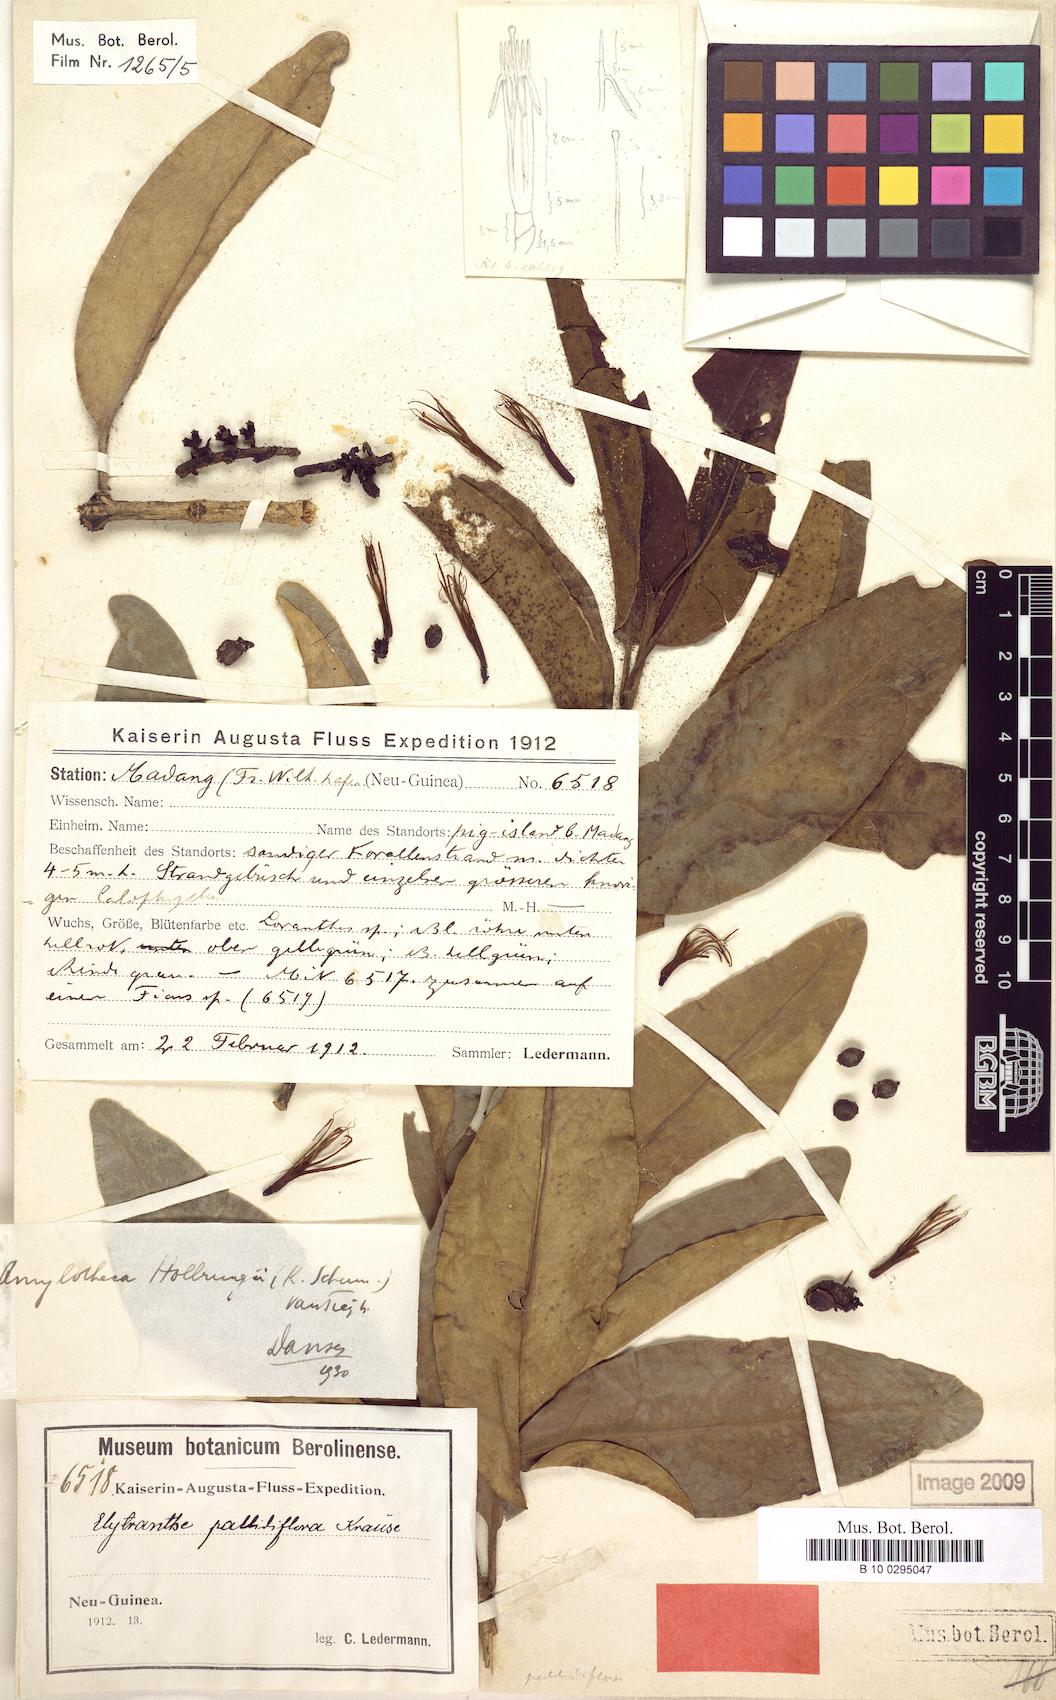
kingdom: Plantae
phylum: Tracheophyta
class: Magnoliopsida
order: Santalales
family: Loranthaceae
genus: Decaisnina
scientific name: Decaisnina hollrungii
